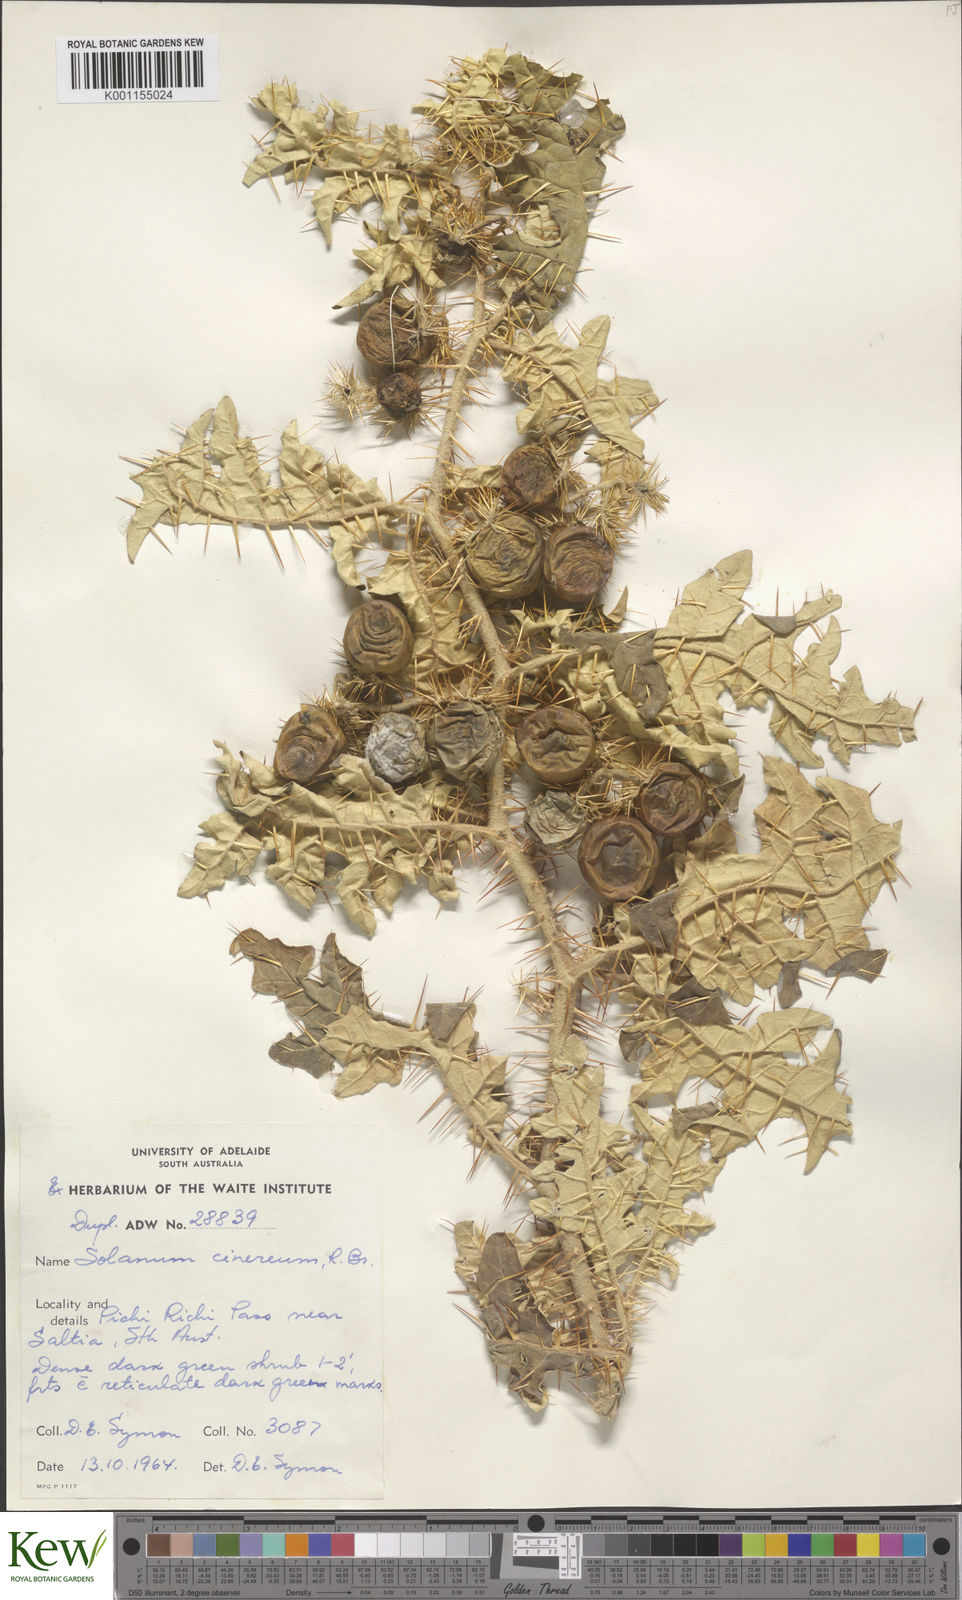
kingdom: Plantae
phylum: Tracheophyta
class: Magnoliopsida
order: Solanales
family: Solanaceae
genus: Solanum
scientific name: Solanum cinereum
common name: Narrawa-bur
